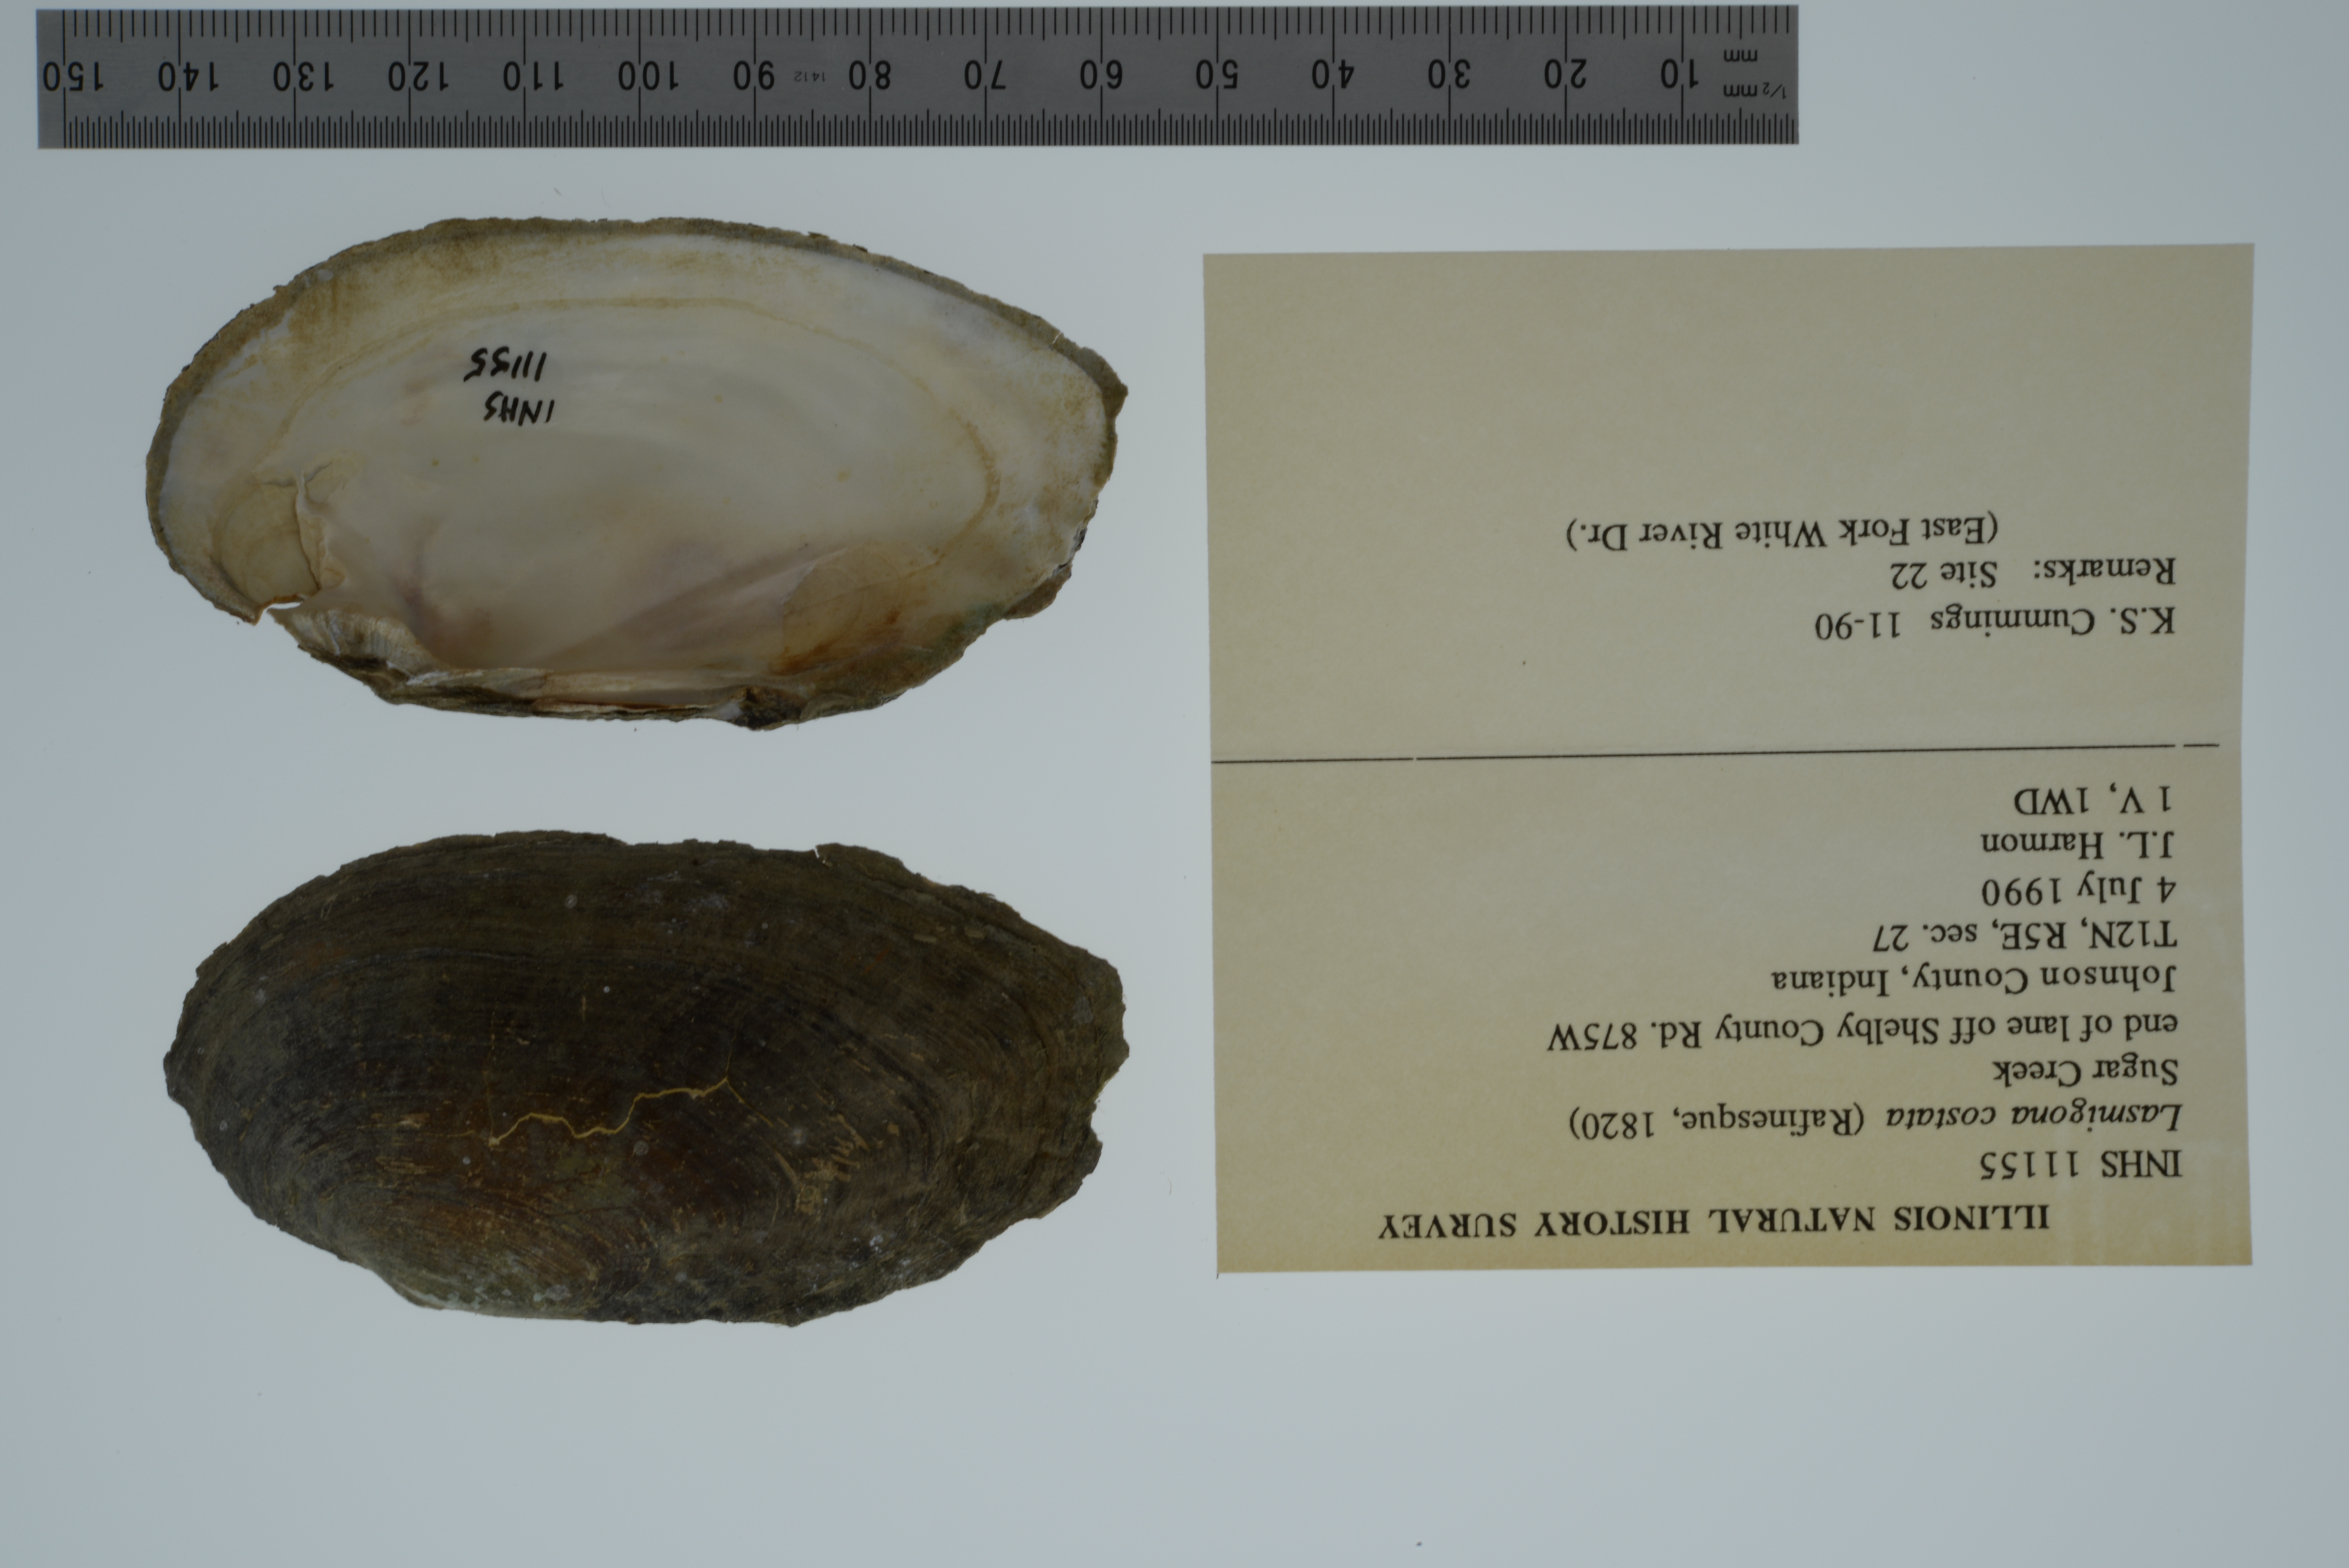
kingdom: Animalia
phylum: Mollusca
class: Bivalvia
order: Unionida
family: Unionidae
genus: Lasmigona
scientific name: Lasmigona costata
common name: Flutedshell
